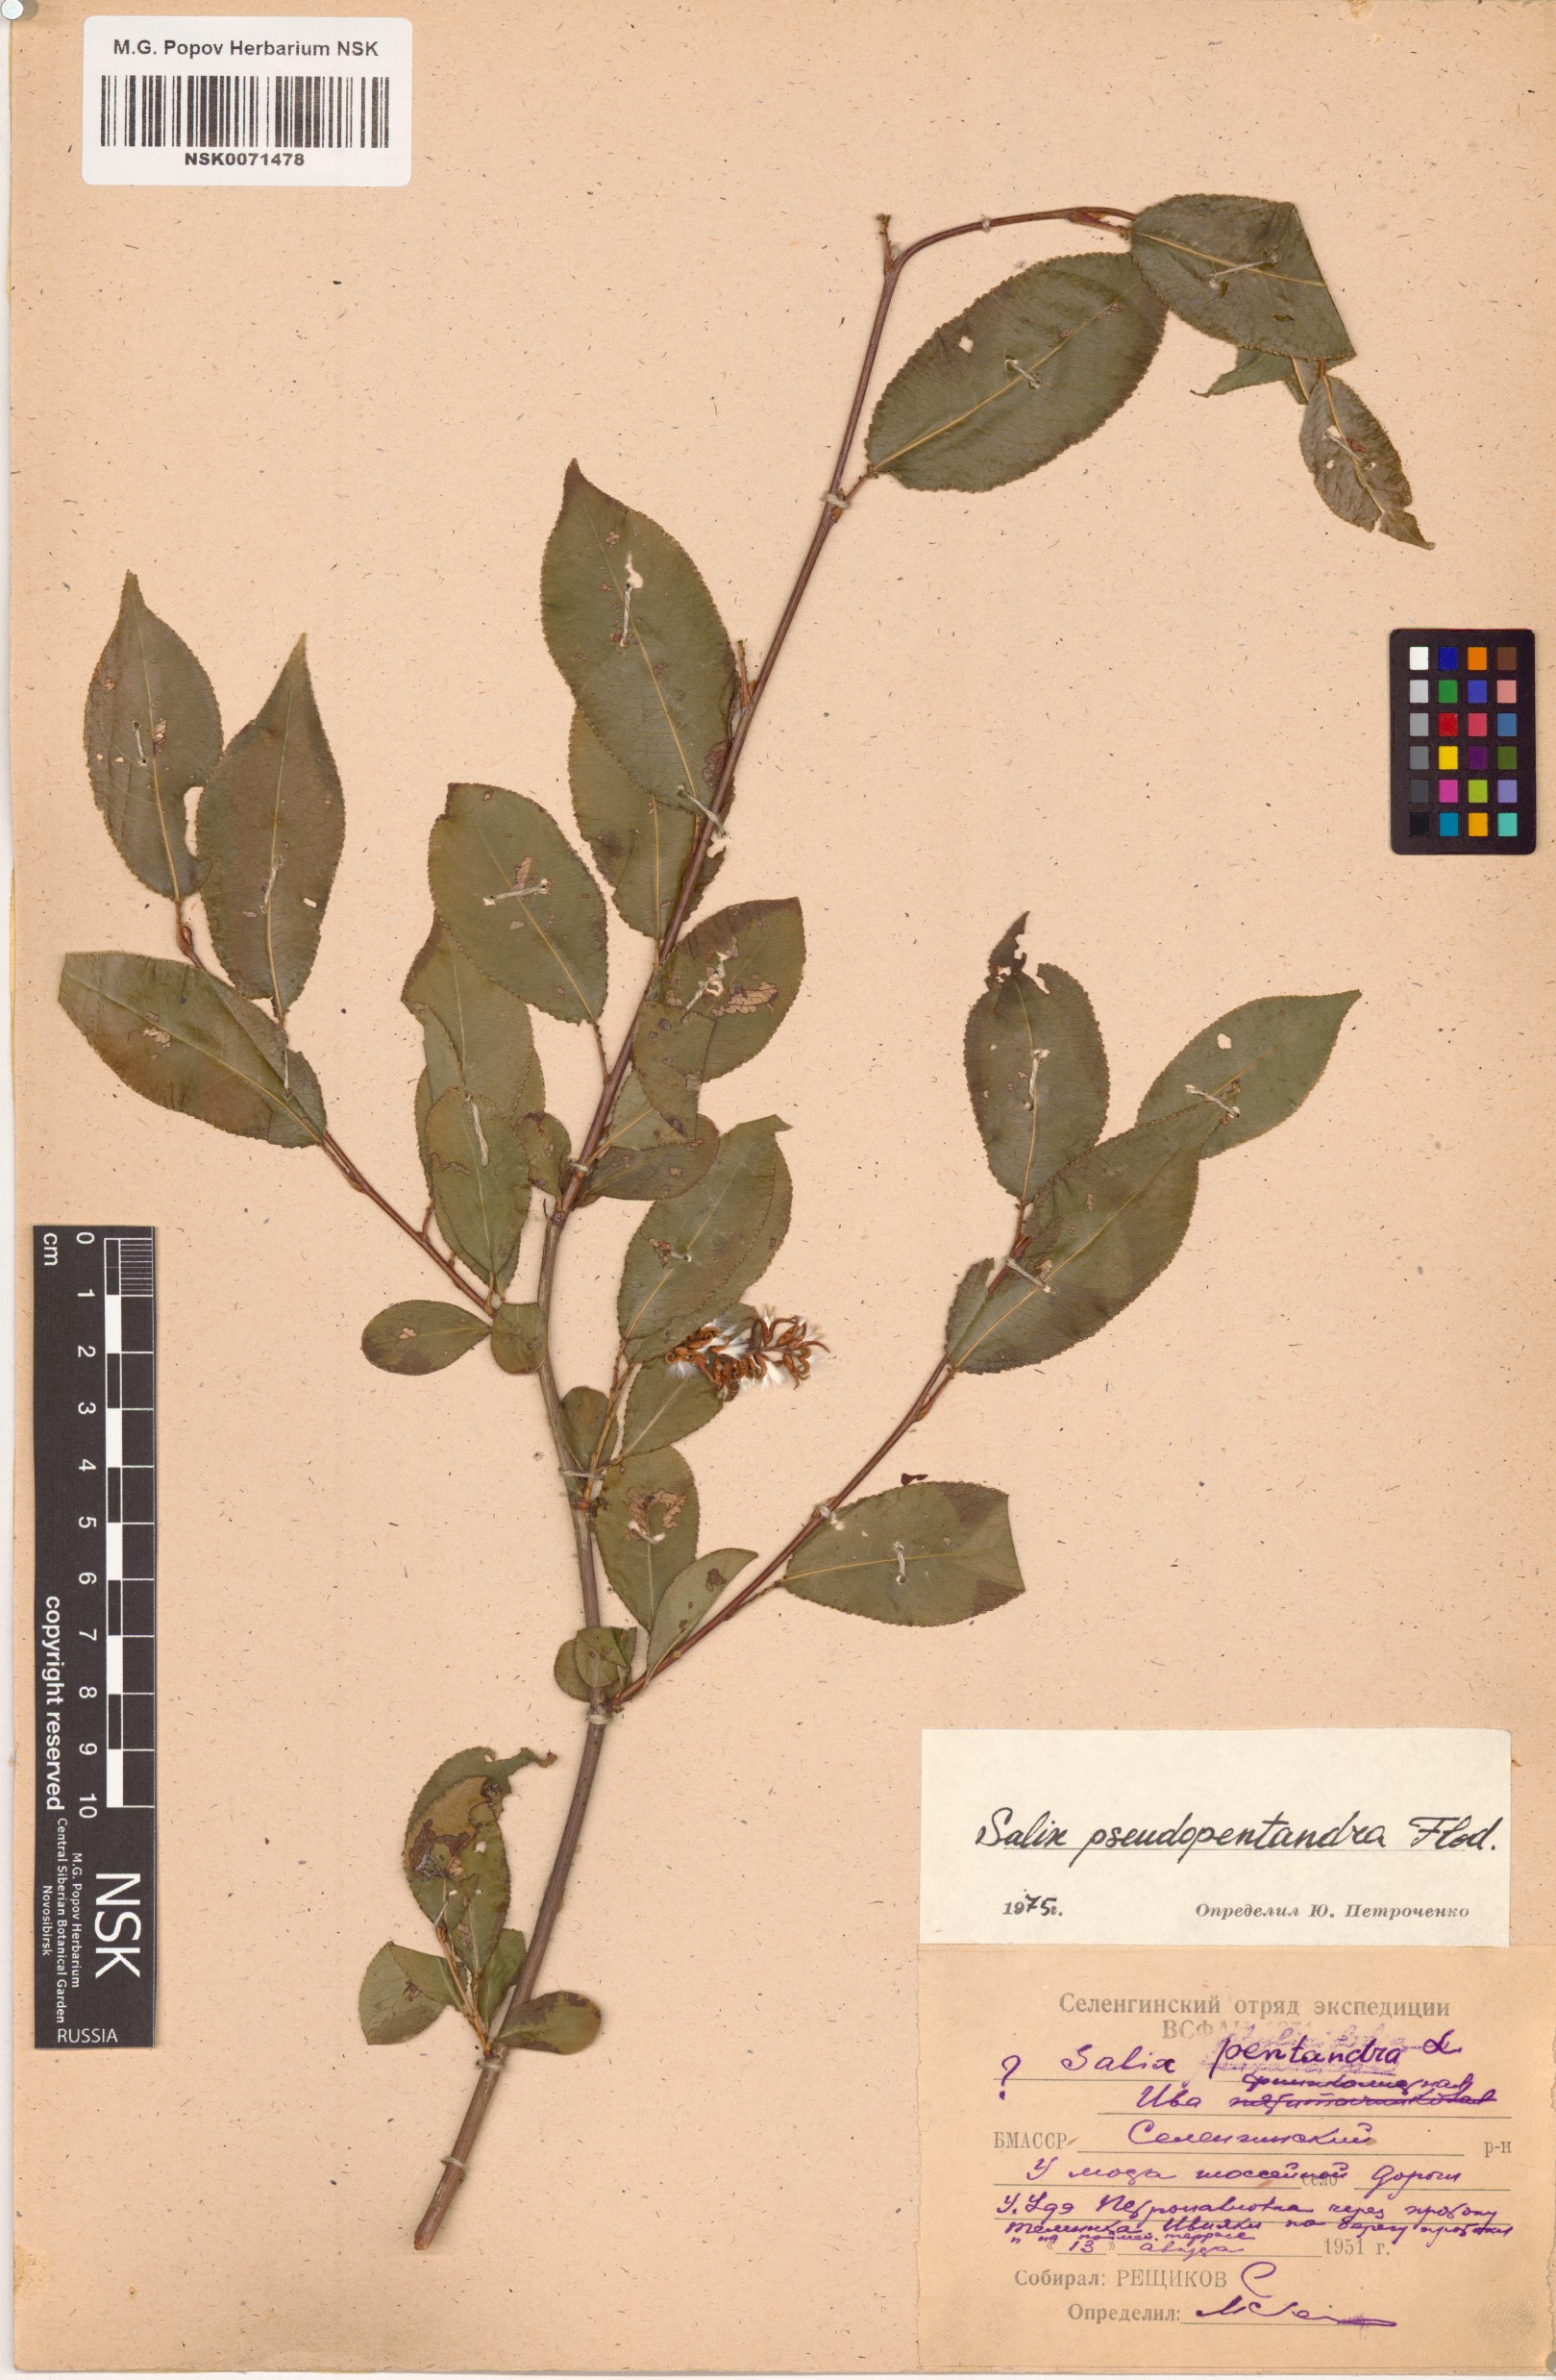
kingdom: Plantae
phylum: Tracheophyta
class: Magnoliopsida
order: Malpighiales
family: Salicaceae
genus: Salix
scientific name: Salix pseudopentandra
